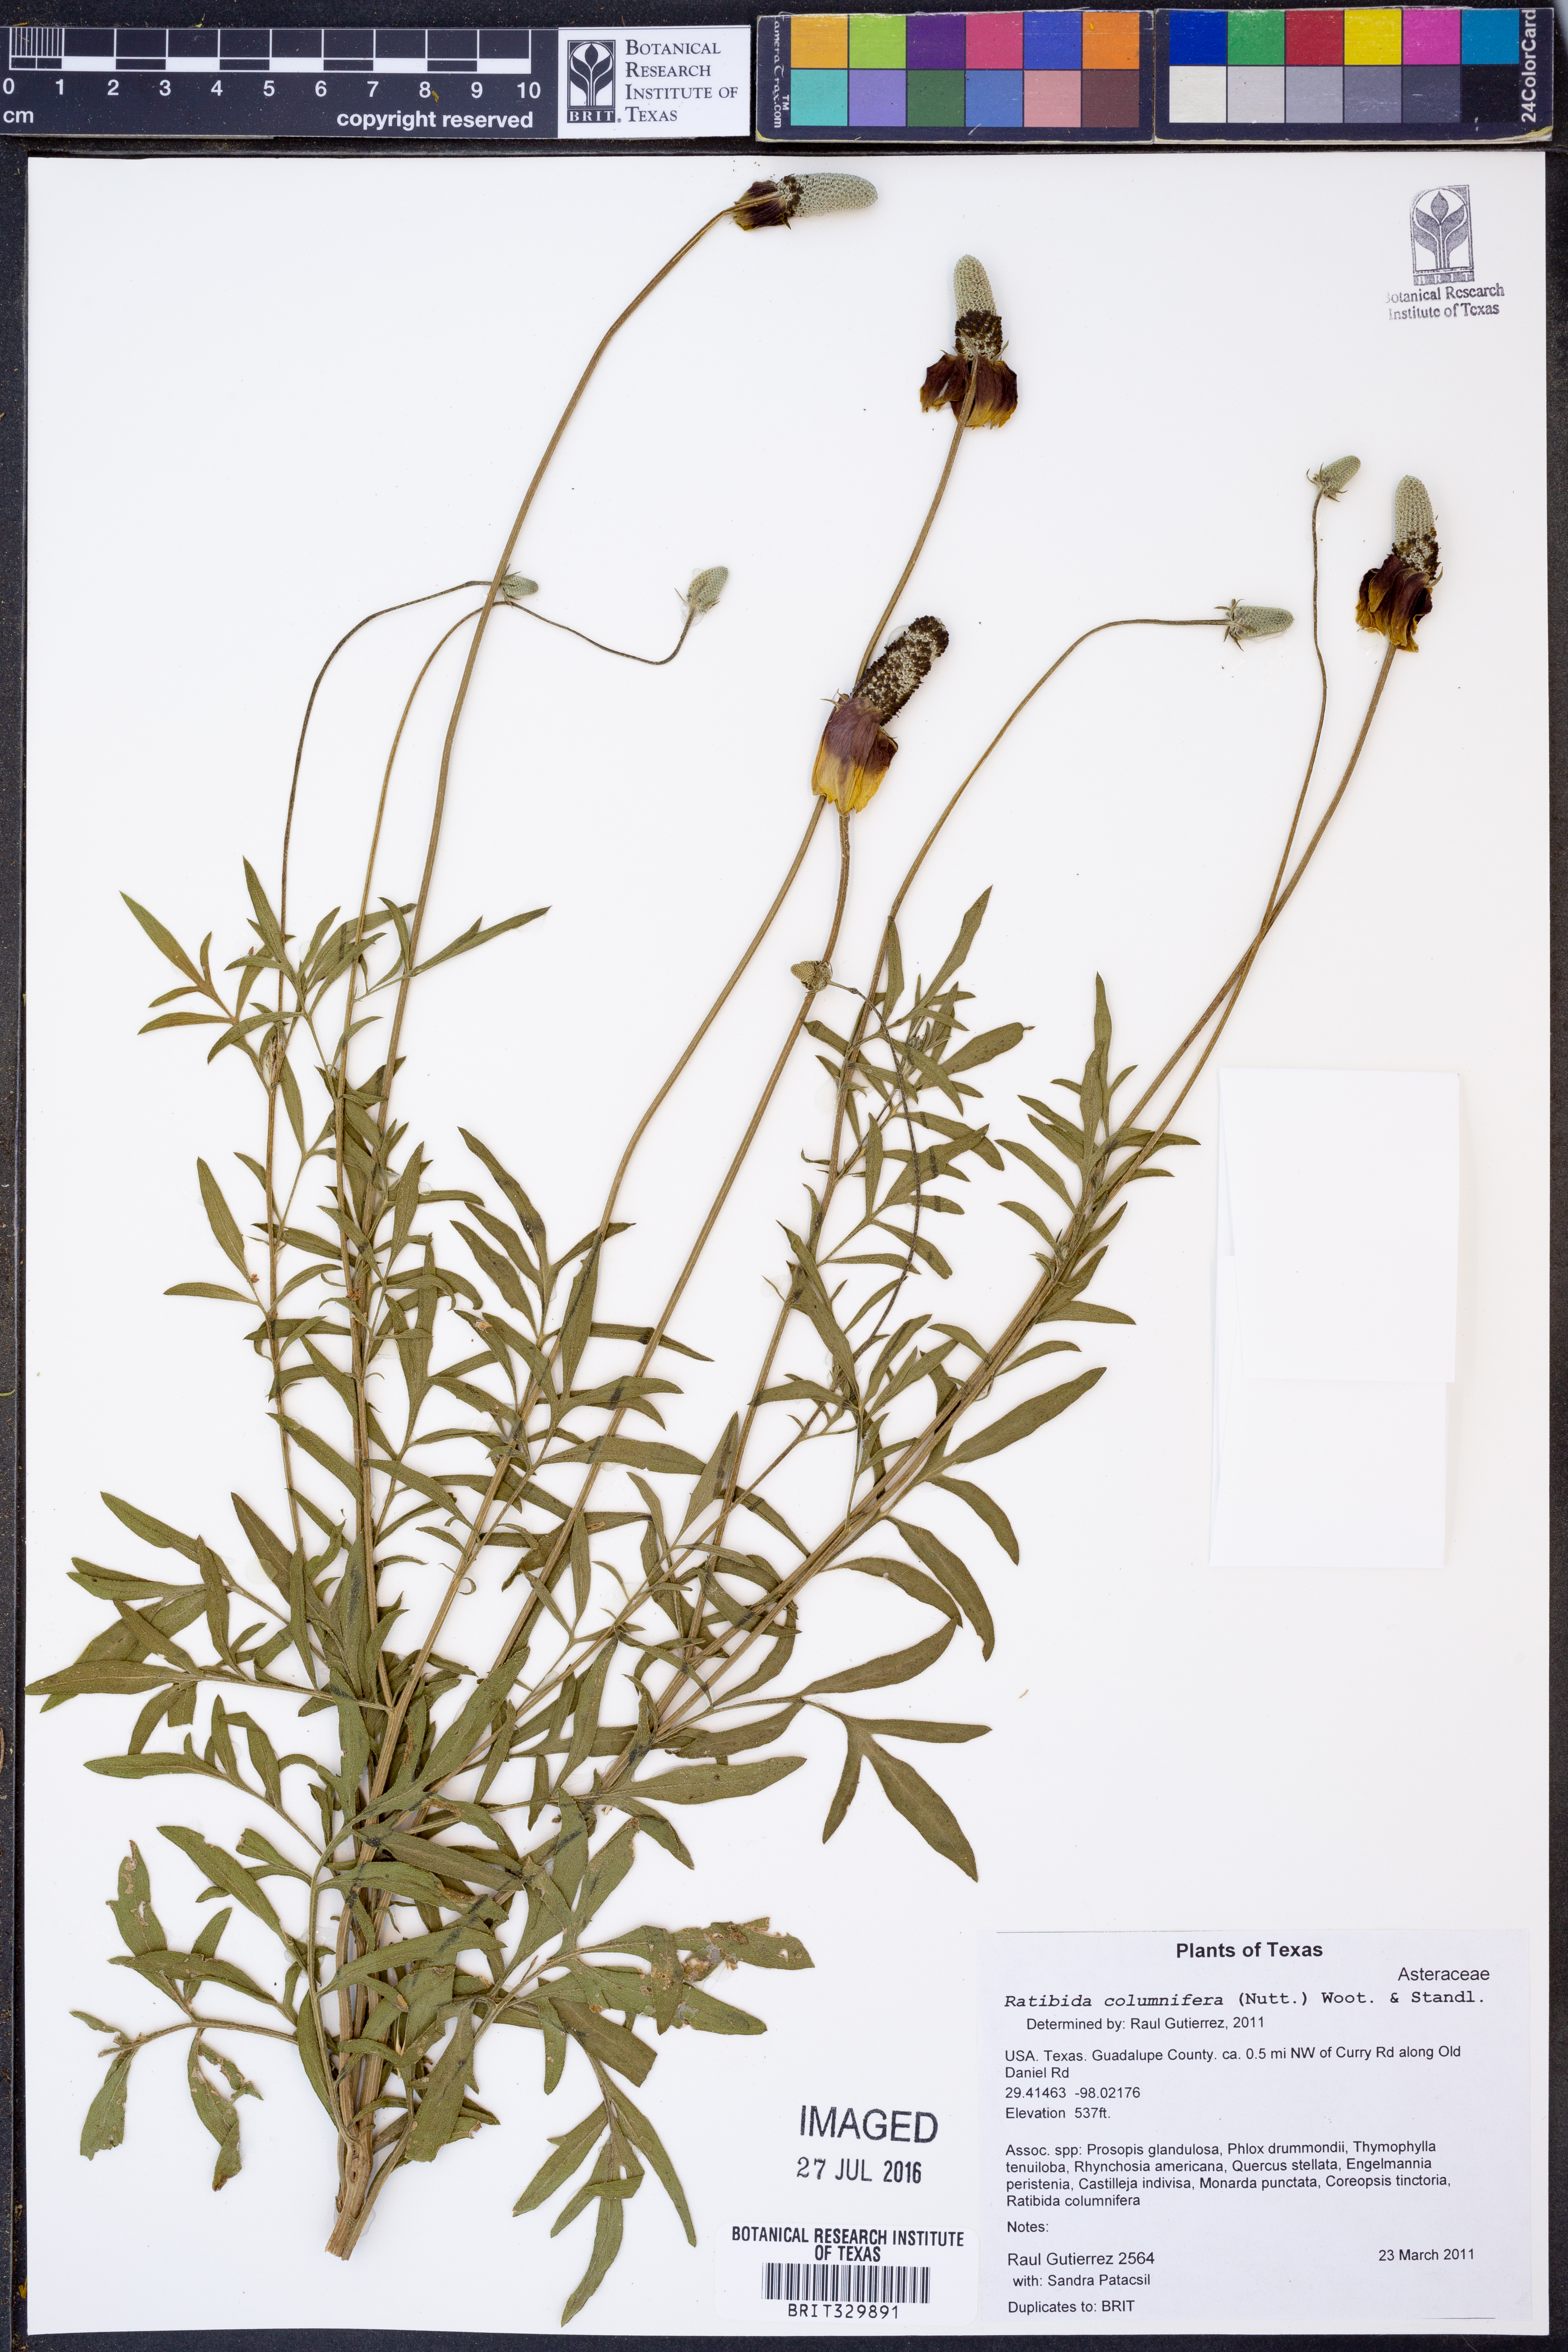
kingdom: Plantae
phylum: Tracheophyta
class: Magnoliopsida
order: Asterales
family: Asteraceae
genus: Ratibida
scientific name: Ratibida columnifera
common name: Prairie coneflower
